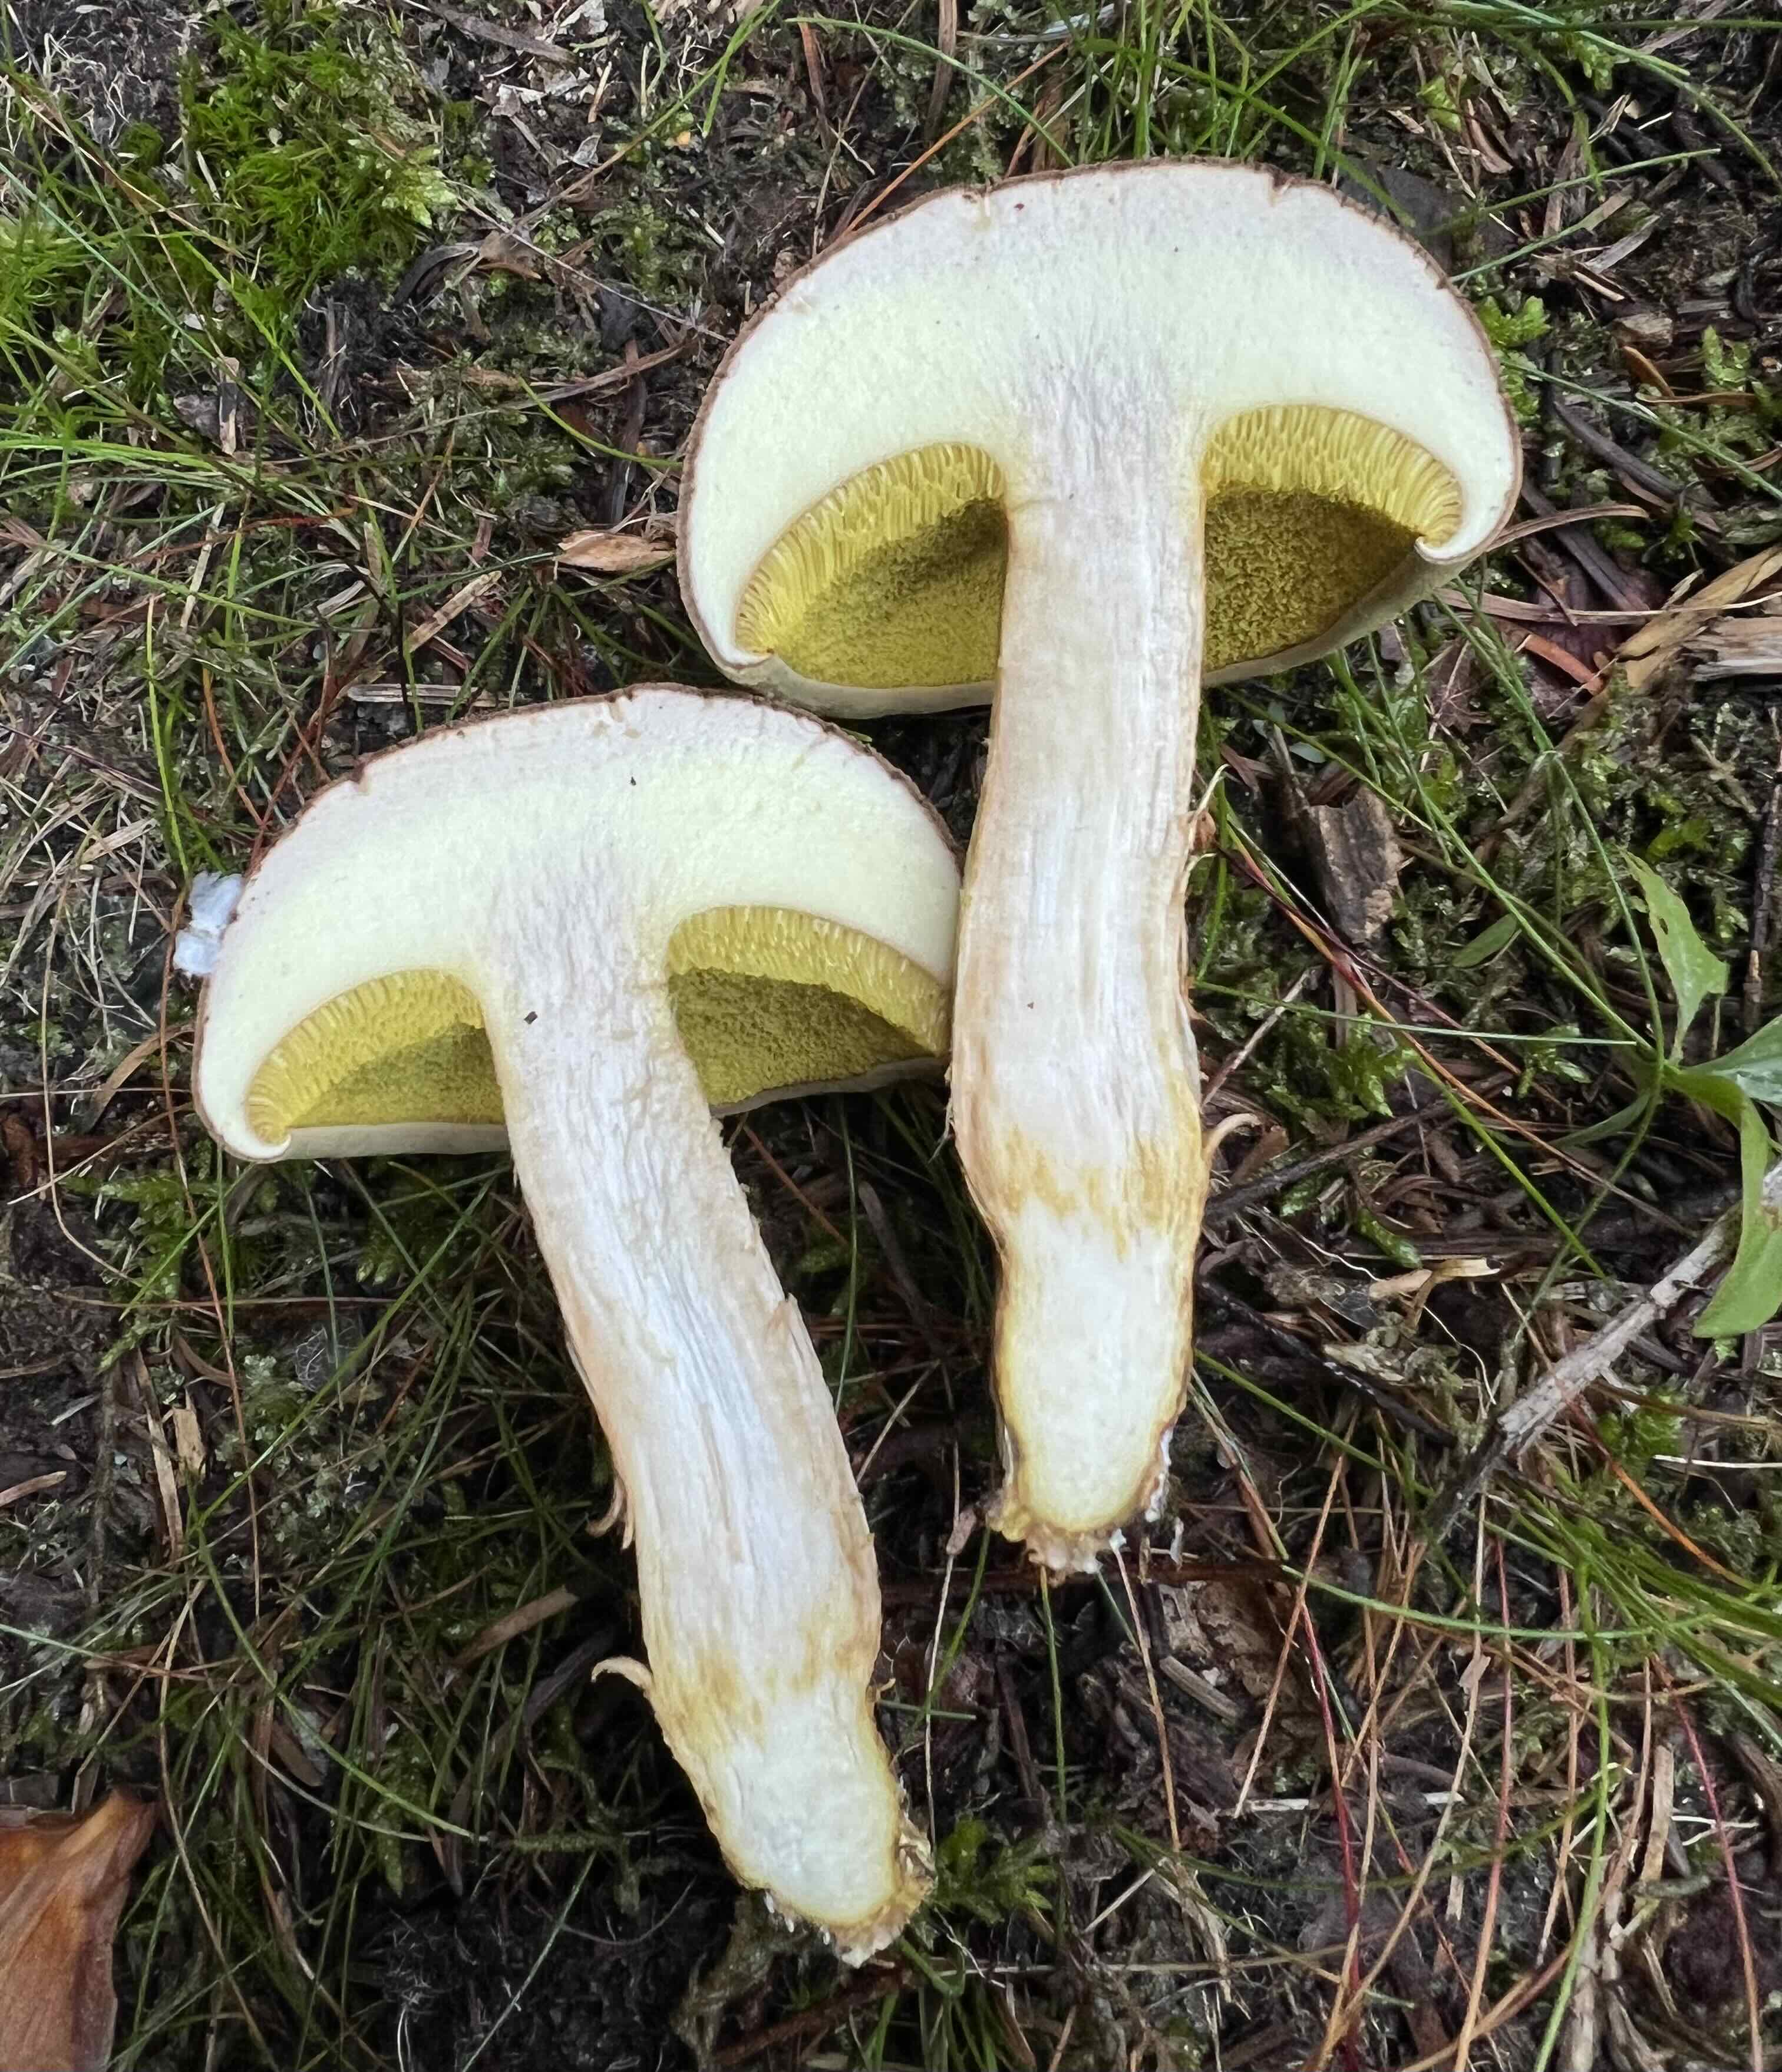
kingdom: Fungi
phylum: Basidiomycota
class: Agaricomycetes
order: Boletales
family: Boletaceae
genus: Xerocomus
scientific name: Xerocomus subtomentosus
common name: filtet rørhat
